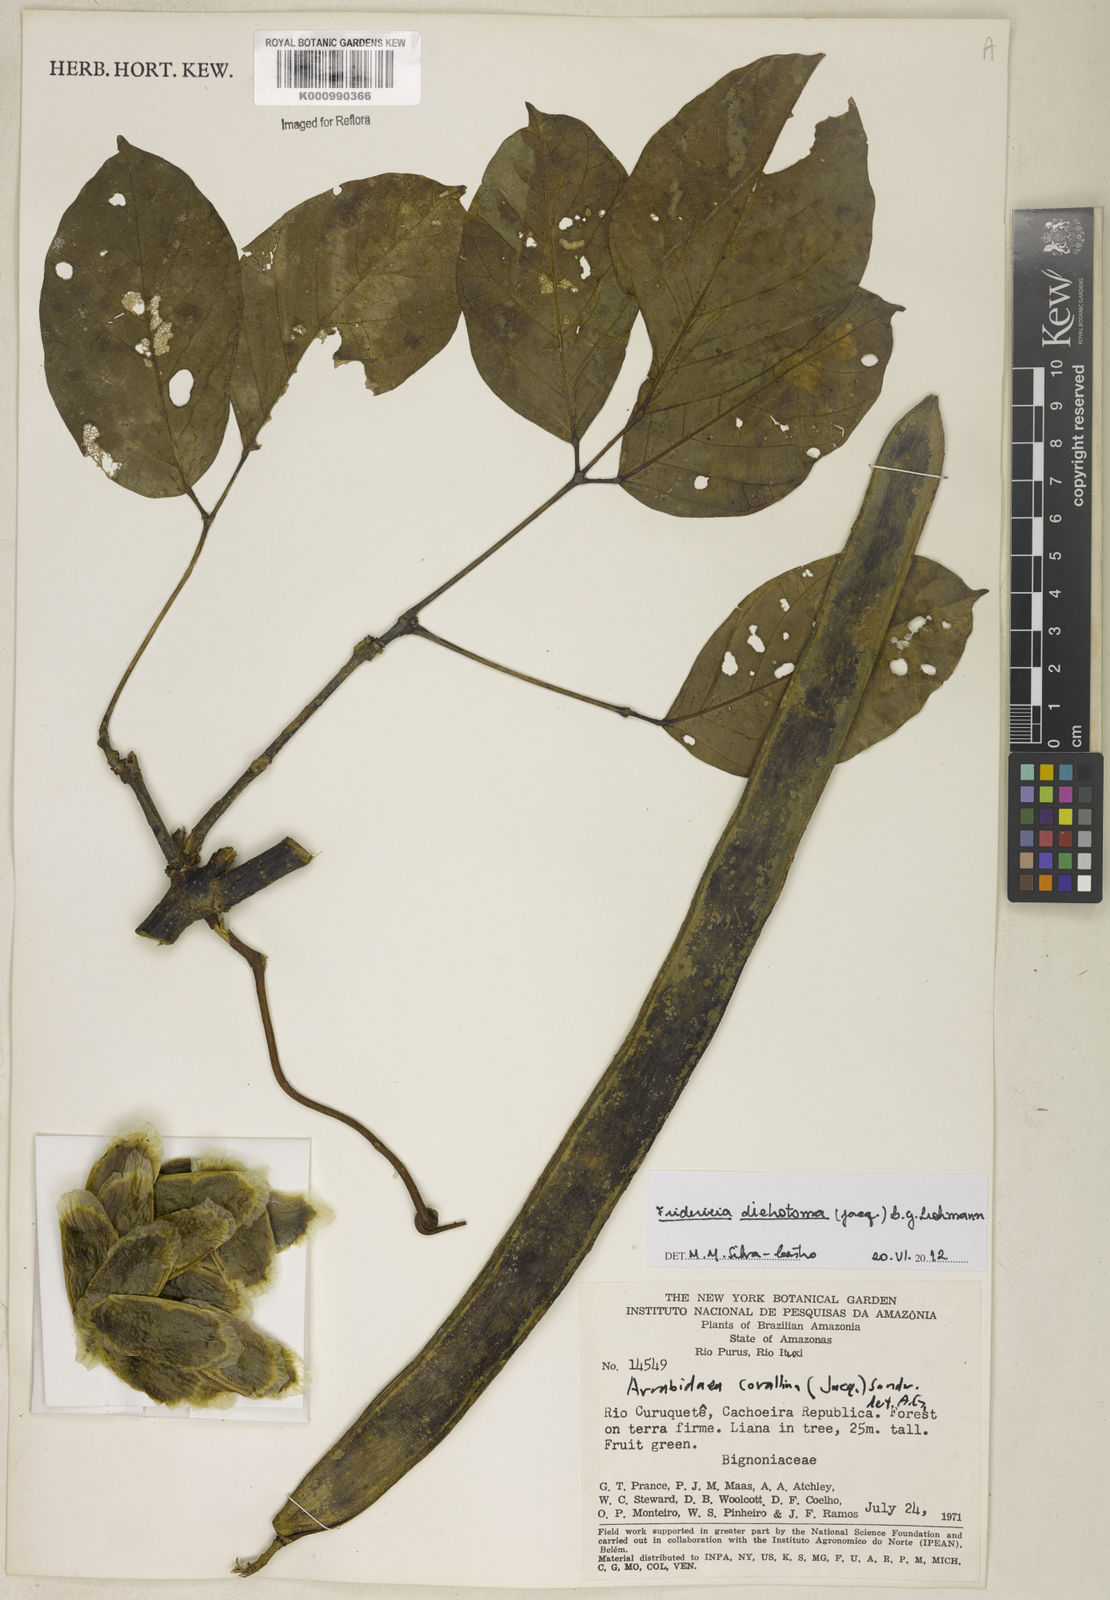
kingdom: Plantae
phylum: Tracheophyta
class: Magnoliopsida
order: Lamiales
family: Bignoniaceae
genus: Tanaecium
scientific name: Tanaecium dichotomum
